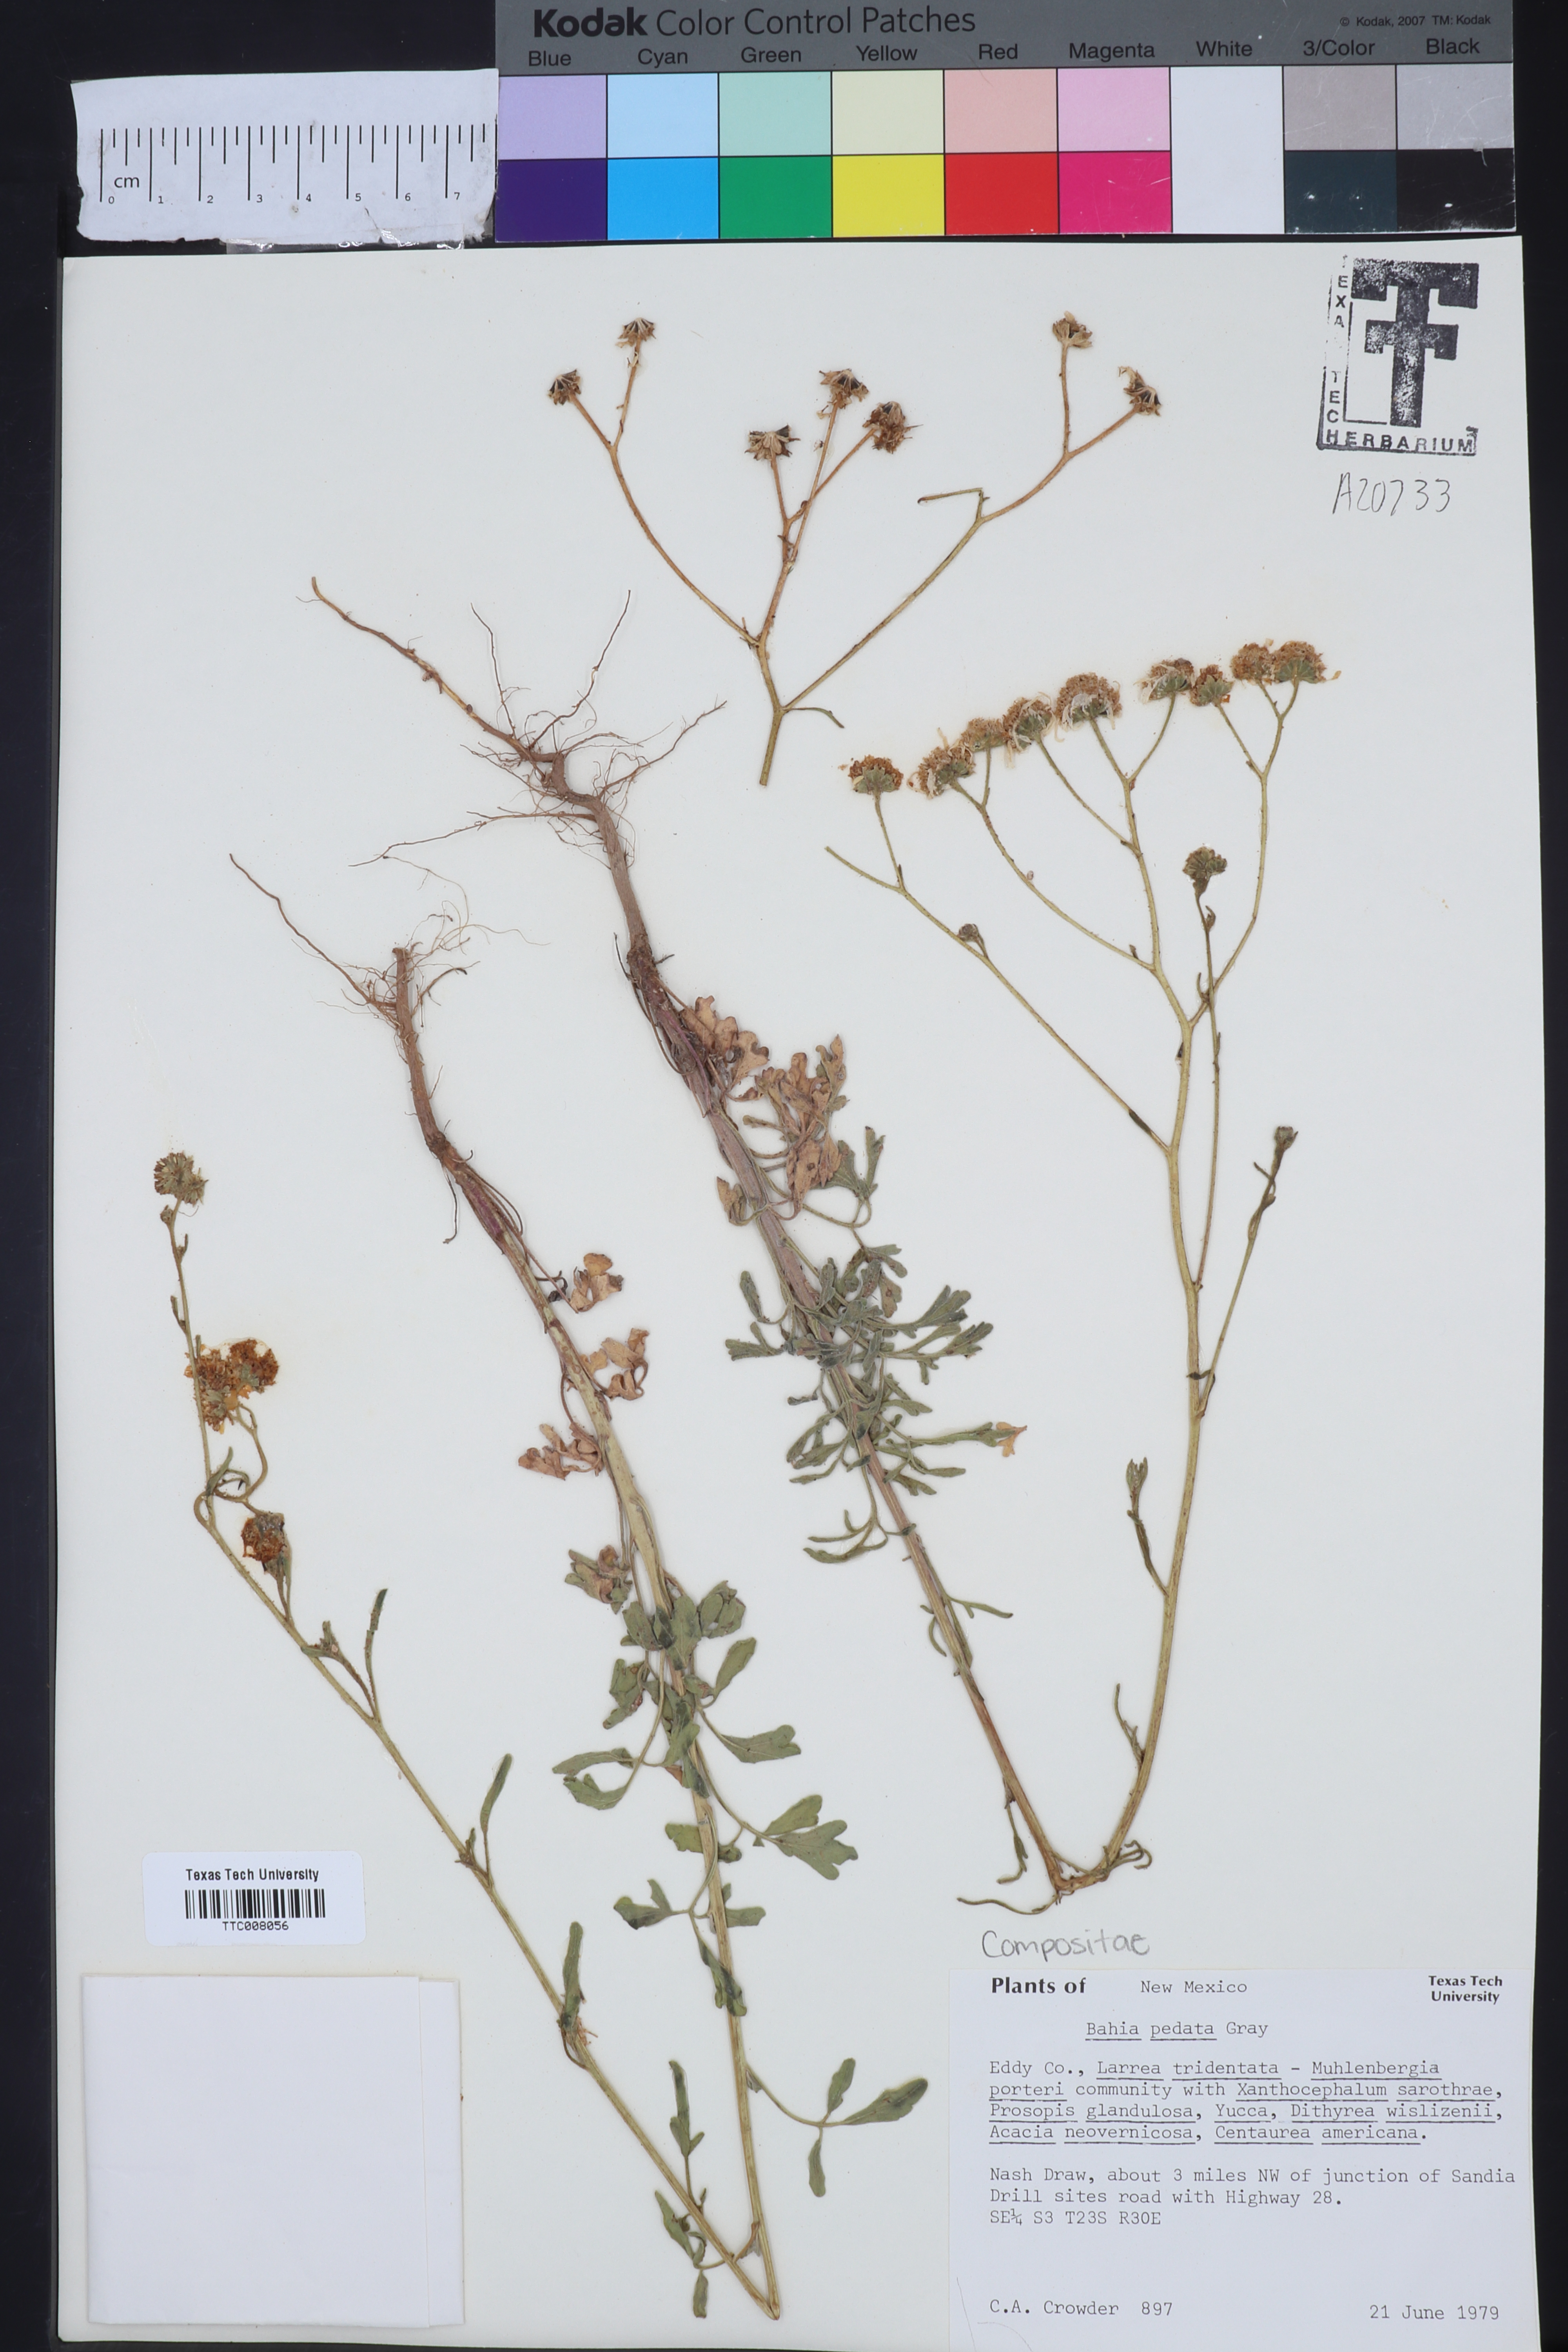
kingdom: Plantae
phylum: Tracheophyta
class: Magnoliopsida
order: Asterales
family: Asteraceae
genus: Hymenothrix
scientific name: Hymenothrix pedata
